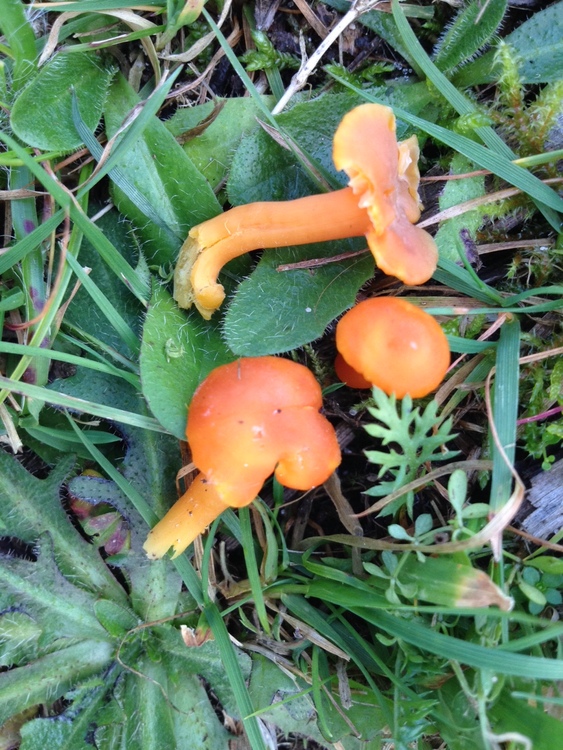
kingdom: Fungi
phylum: Basidiomycota
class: Agaricomycetes
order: Agaricales
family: Hygrophoraceae
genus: Hygrocybe
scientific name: Hygrocybe
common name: vokshat
